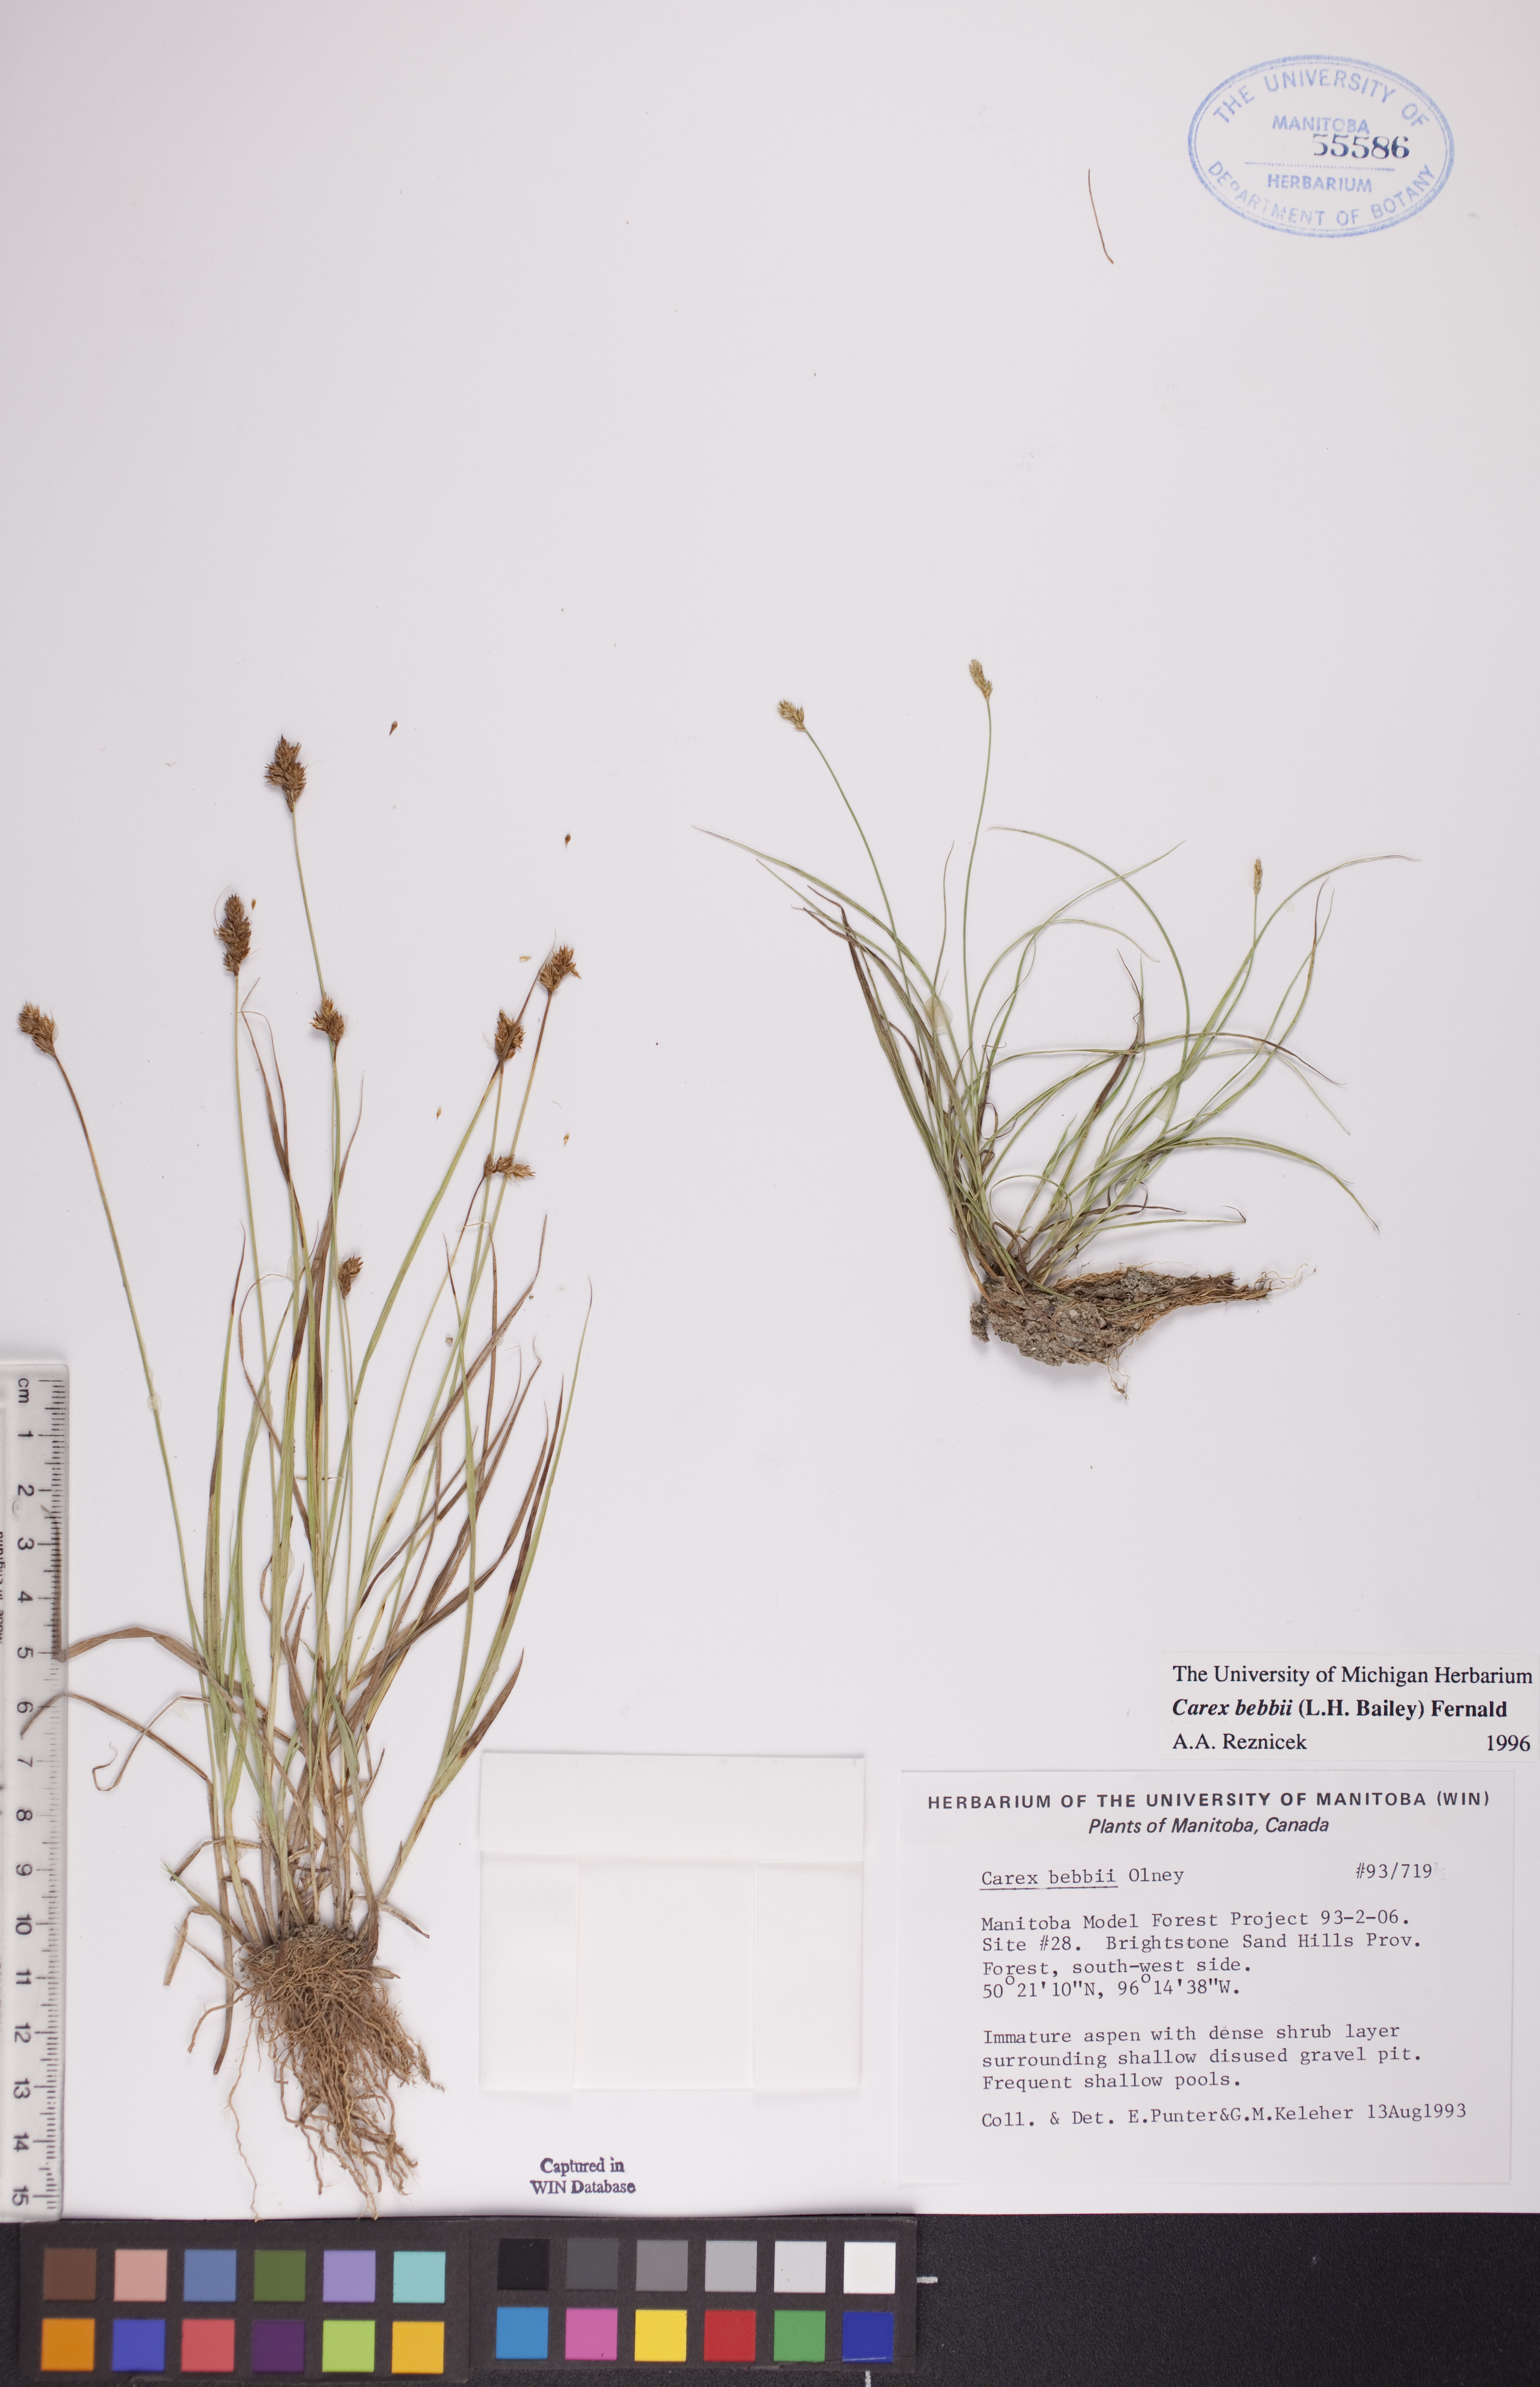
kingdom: Plantae
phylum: Tracheophyta
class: Liliopsida
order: Poales
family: Cyperaceae
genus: Carex
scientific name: Carex bebbii
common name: Bebb's sedge
